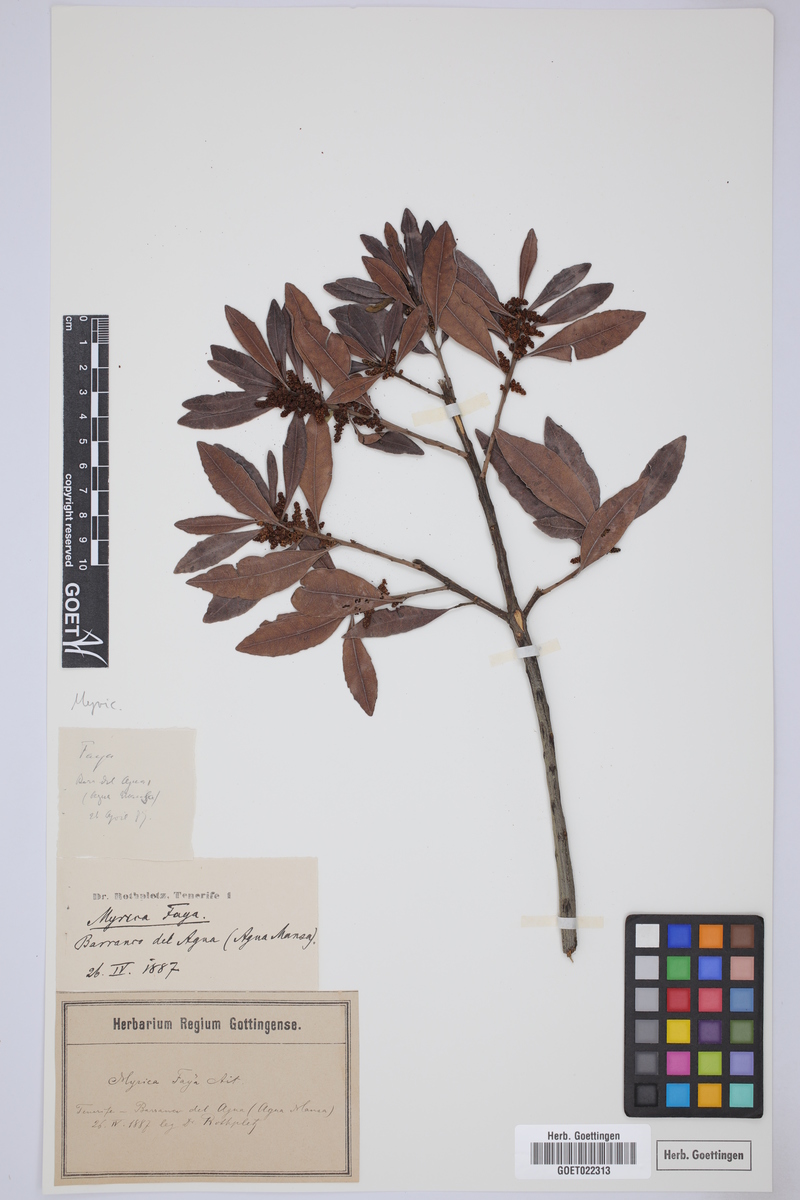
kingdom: Plantae
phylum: Tracheophyta
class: Magnoliopsida
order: Fagales
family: Myricaceae
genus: Morella
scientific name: Morella faya
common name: Firetree
